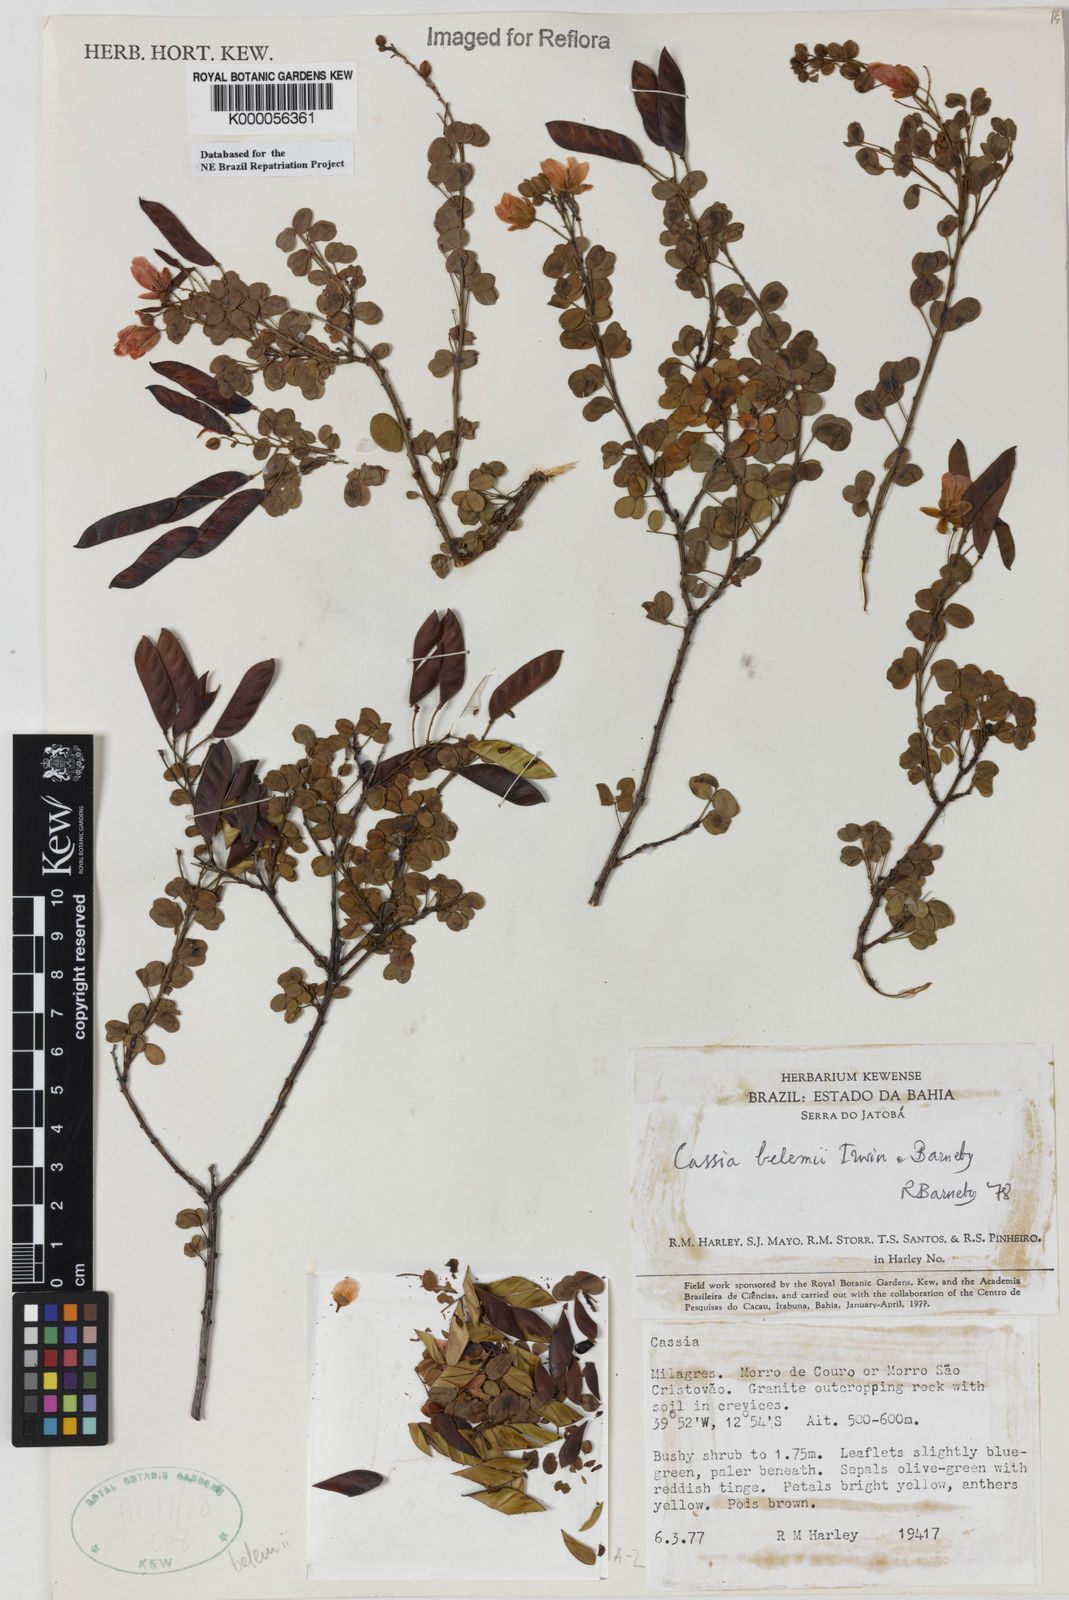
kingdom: Plantae
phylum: Tracheophyta
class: Magnoliopsida
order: Fabales
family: Fabaceae
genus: Chamaecrista
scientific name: Chamaecrista belemii
